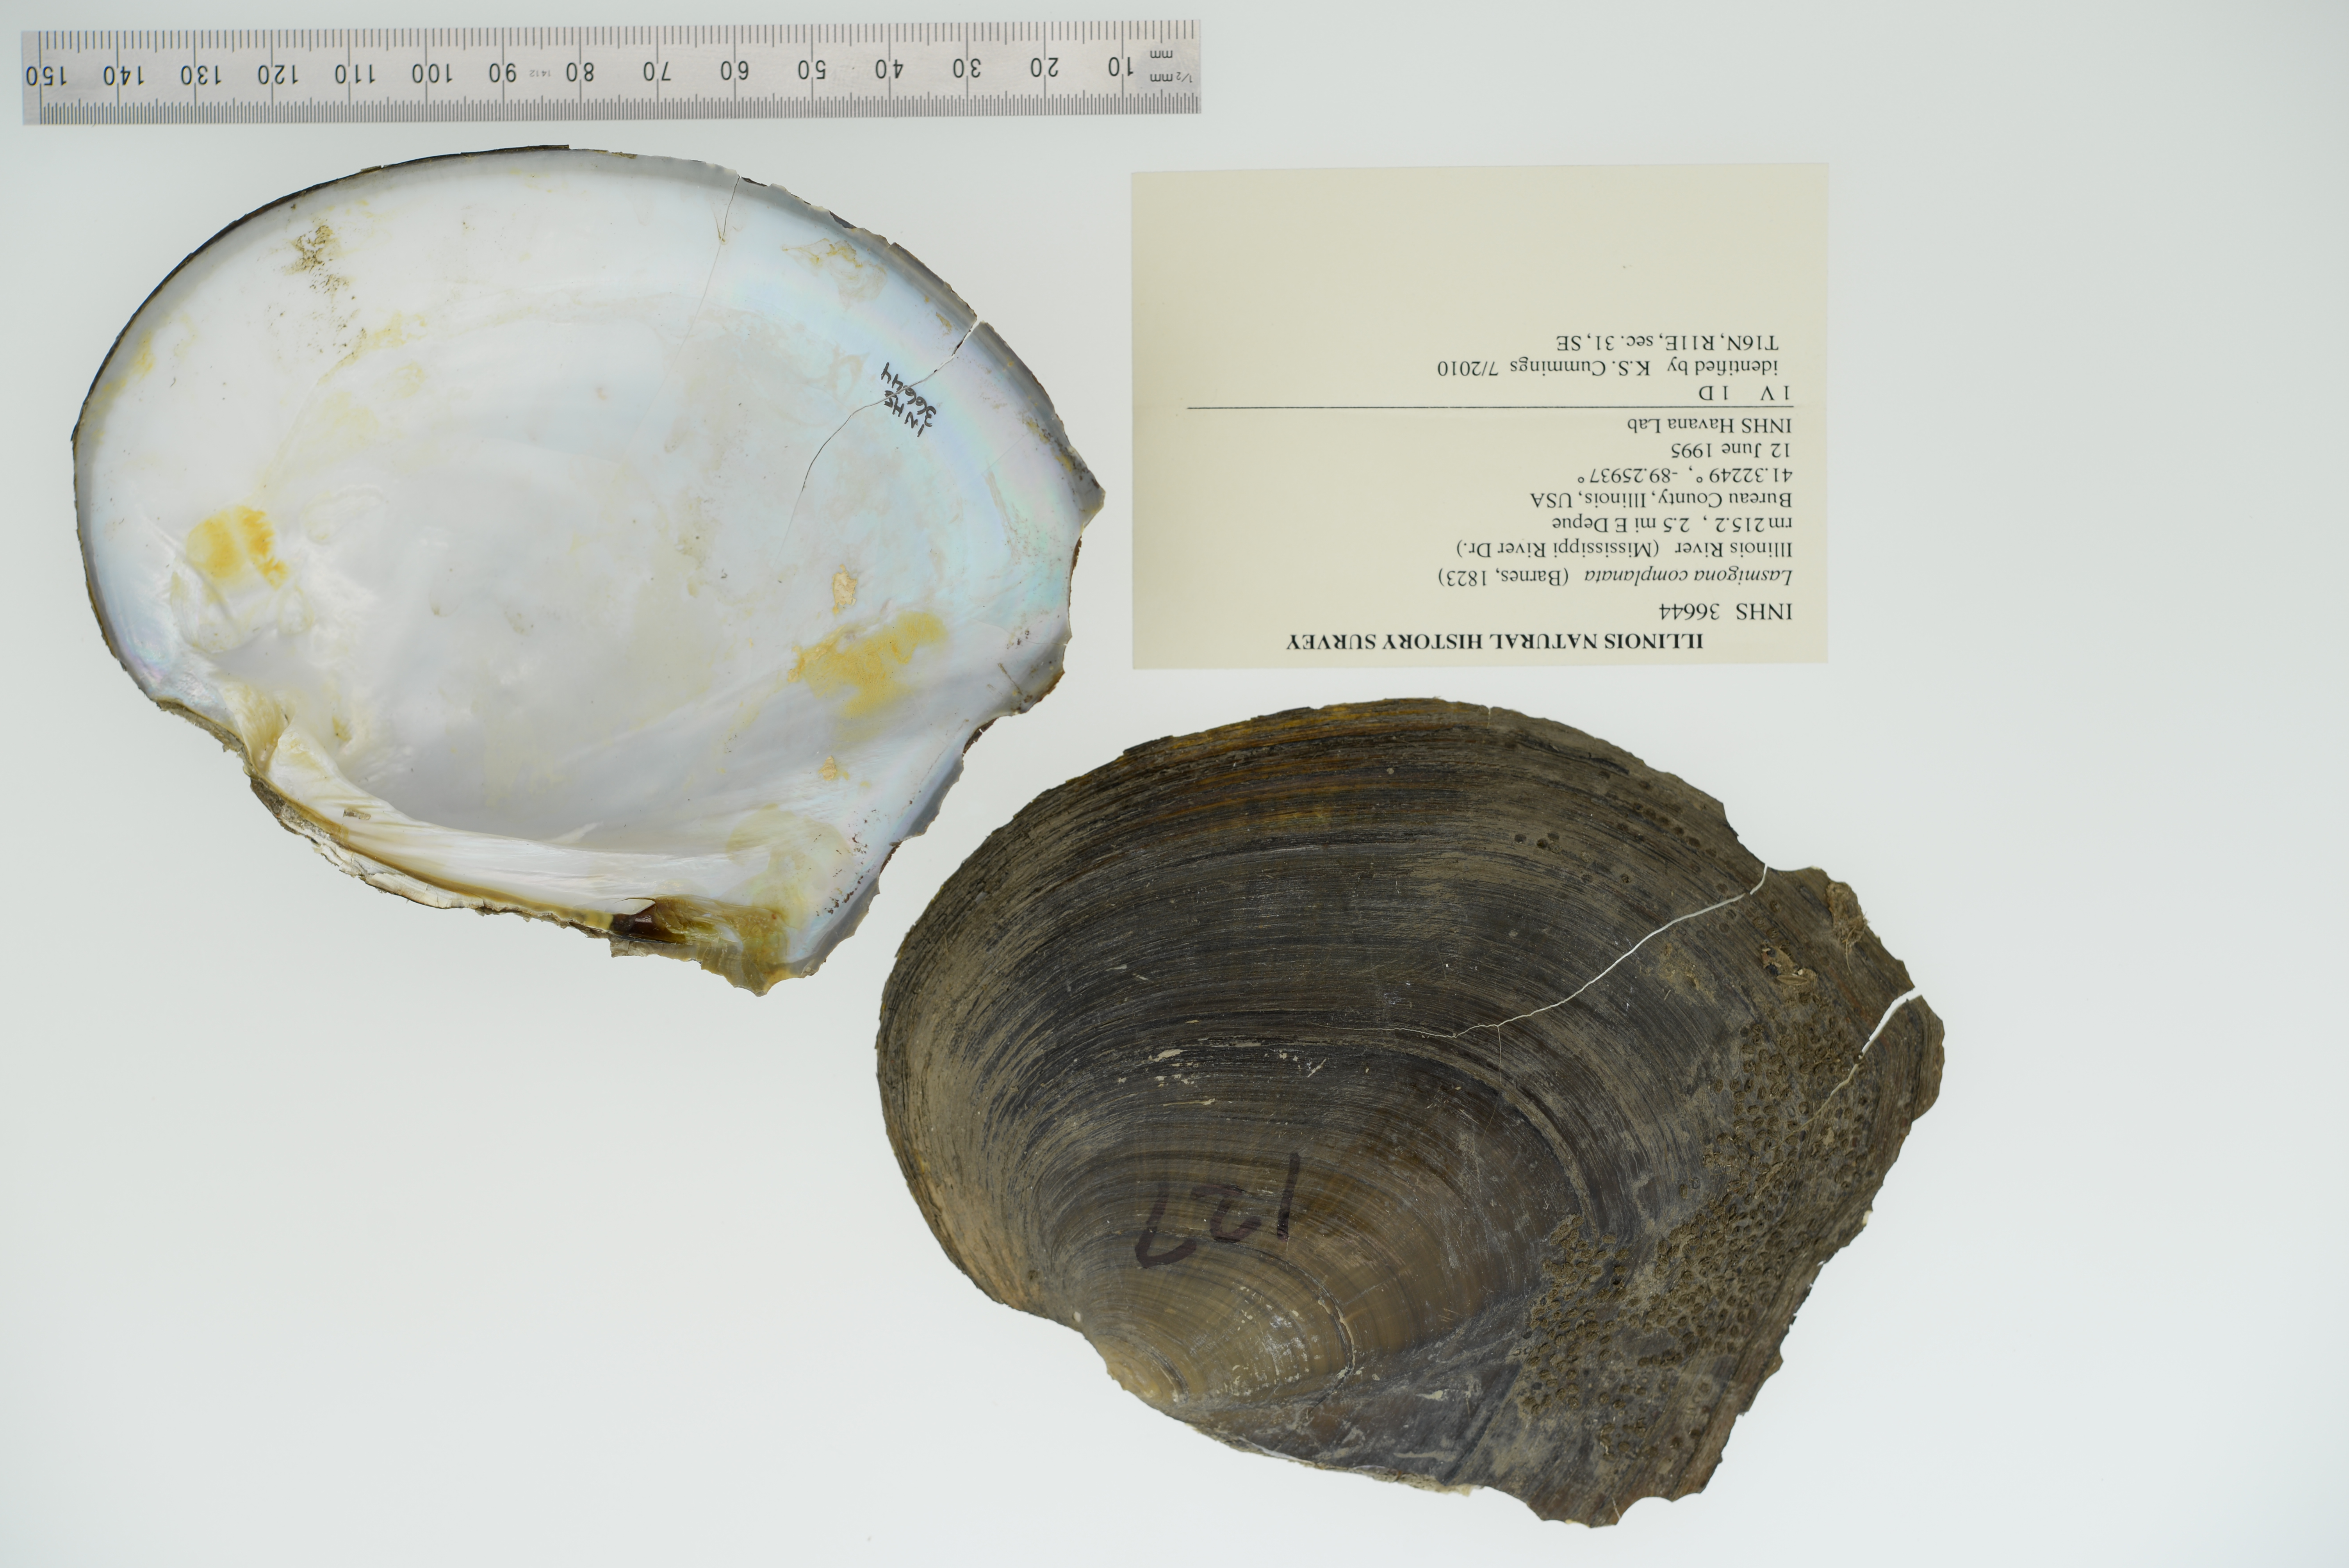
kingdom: Animalia
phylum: Mollusca
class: Bivalvia
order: Unionida
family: Unionidae
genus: Lasmigona
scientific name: Lasmigona complanata
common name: White heelsplitter
